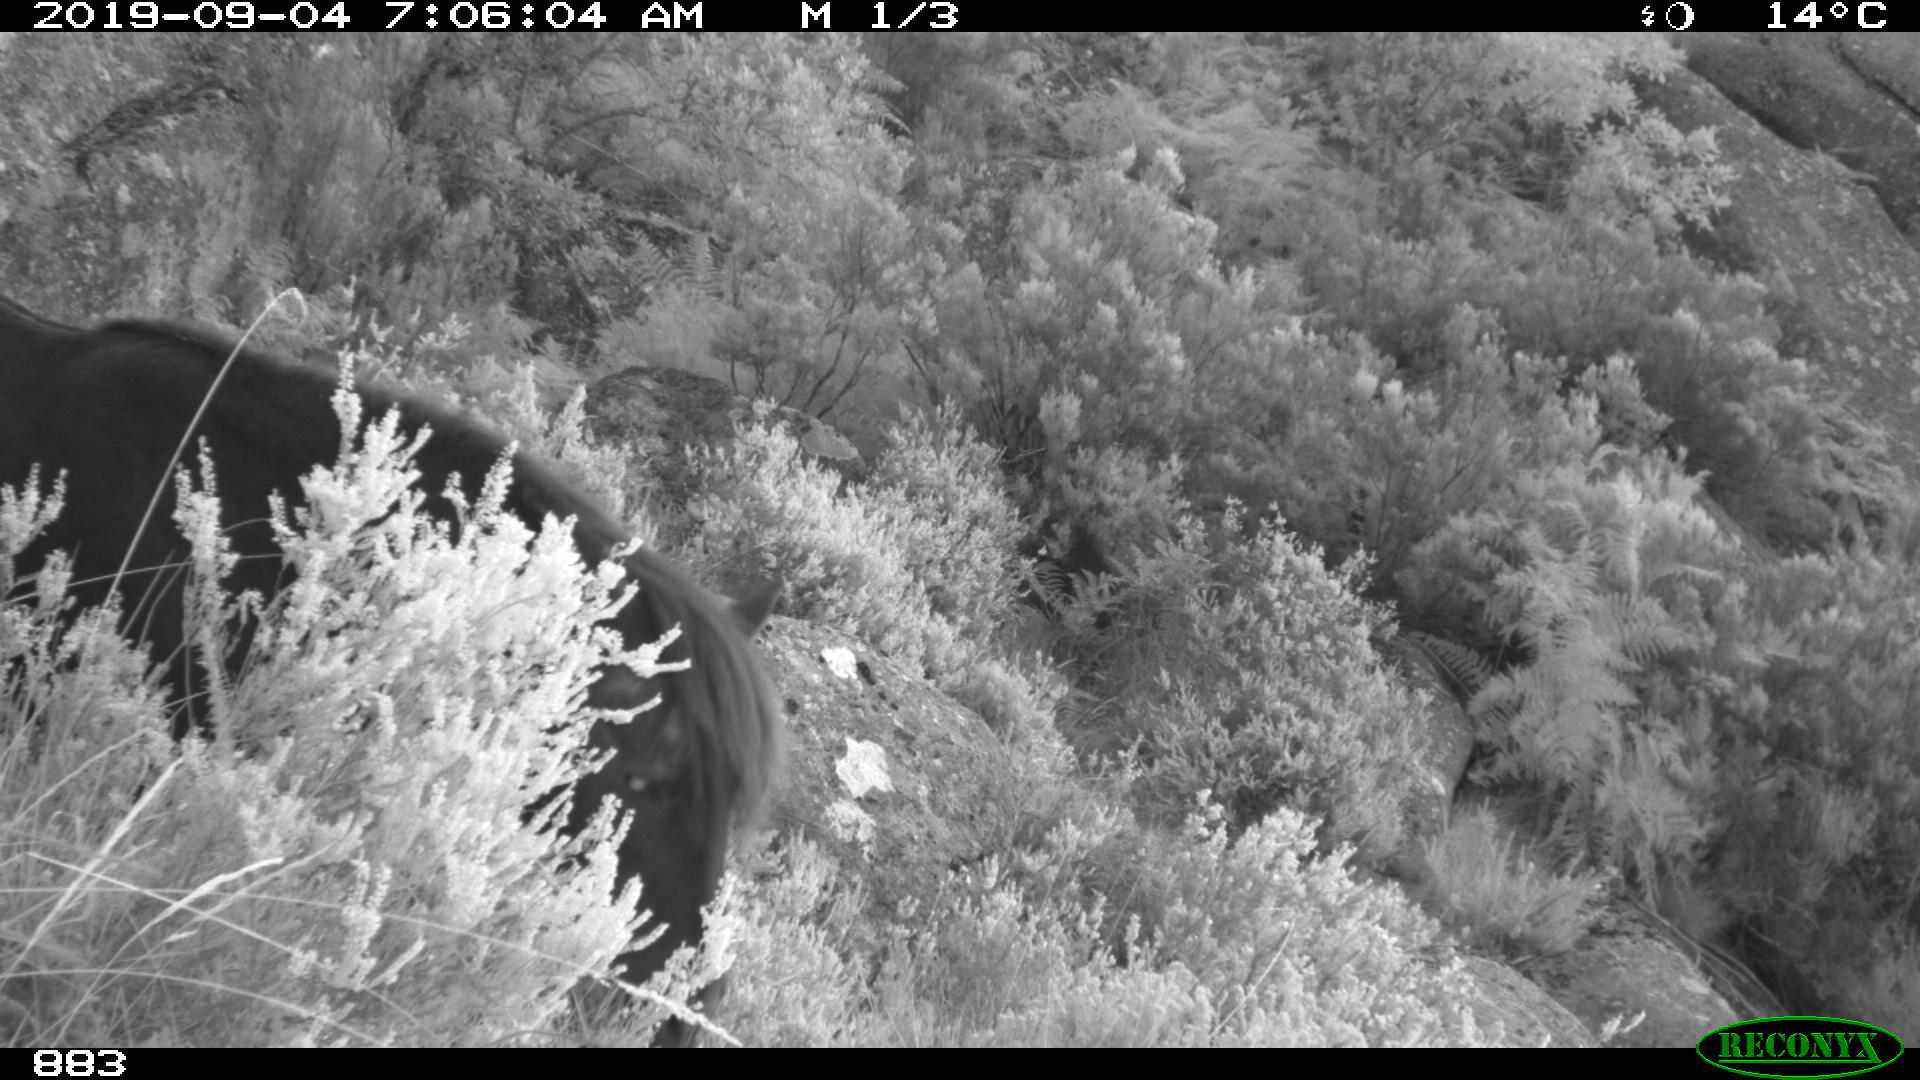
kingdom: Animalia
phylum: Chordata
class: Mammalia
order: Perissodactyla
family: Equidae
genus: Equus
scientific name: Equus caballus
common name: Horse
